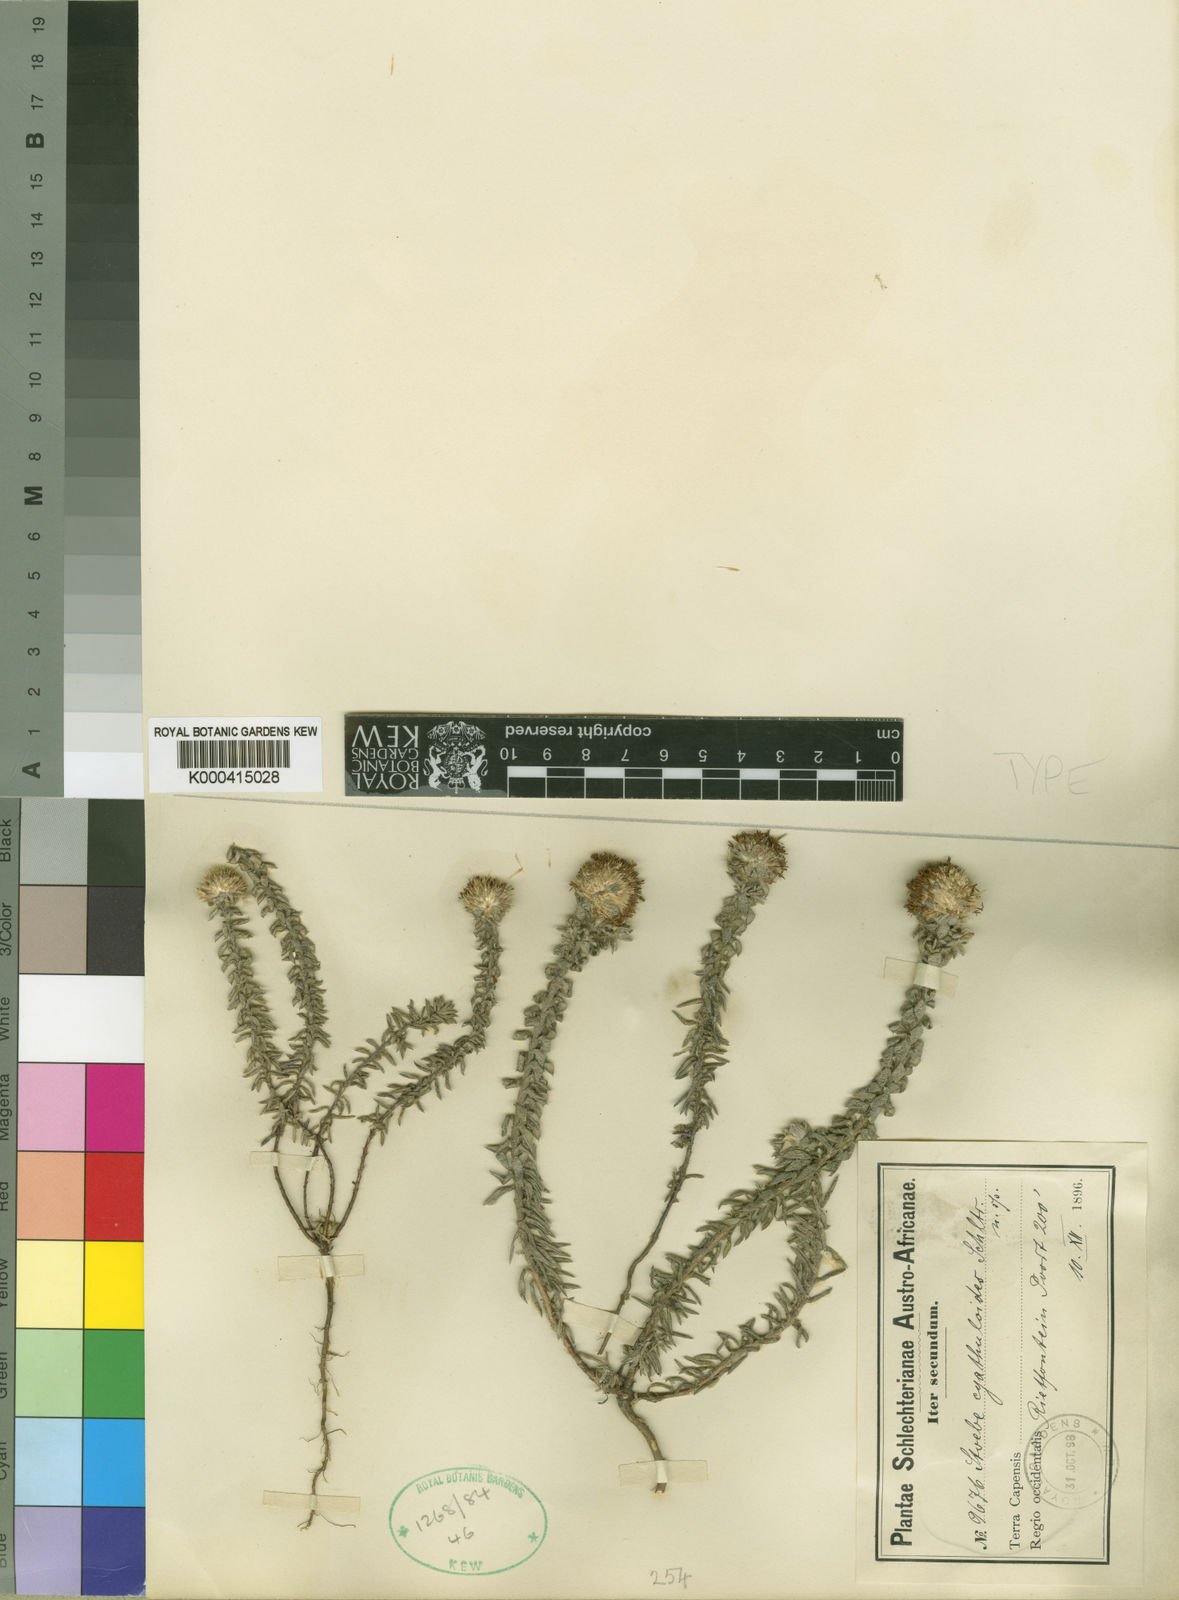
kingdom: Plantae
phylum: Tracheophyta
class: Magnoliopsida
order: Asterales
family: Asteraceae
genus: Stoebe
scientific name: Stoebe cyathuloides
